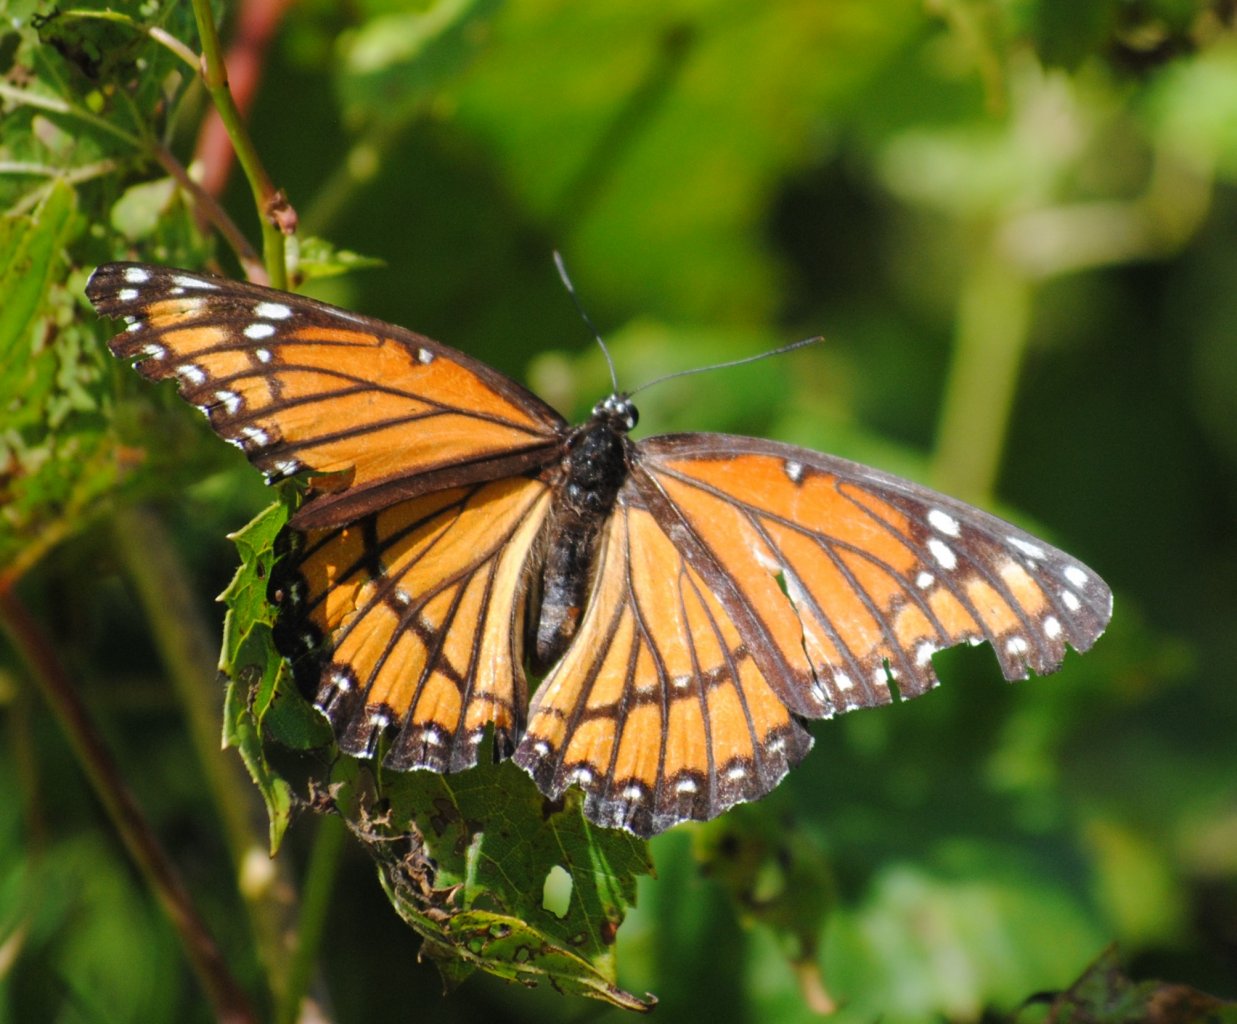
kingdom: Animalia
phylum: Arthropoda
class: Insecta
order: Lepidoptera
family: Nymphalidae
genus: Limenitis
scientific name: Limenitis archippus
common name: Viceroy
